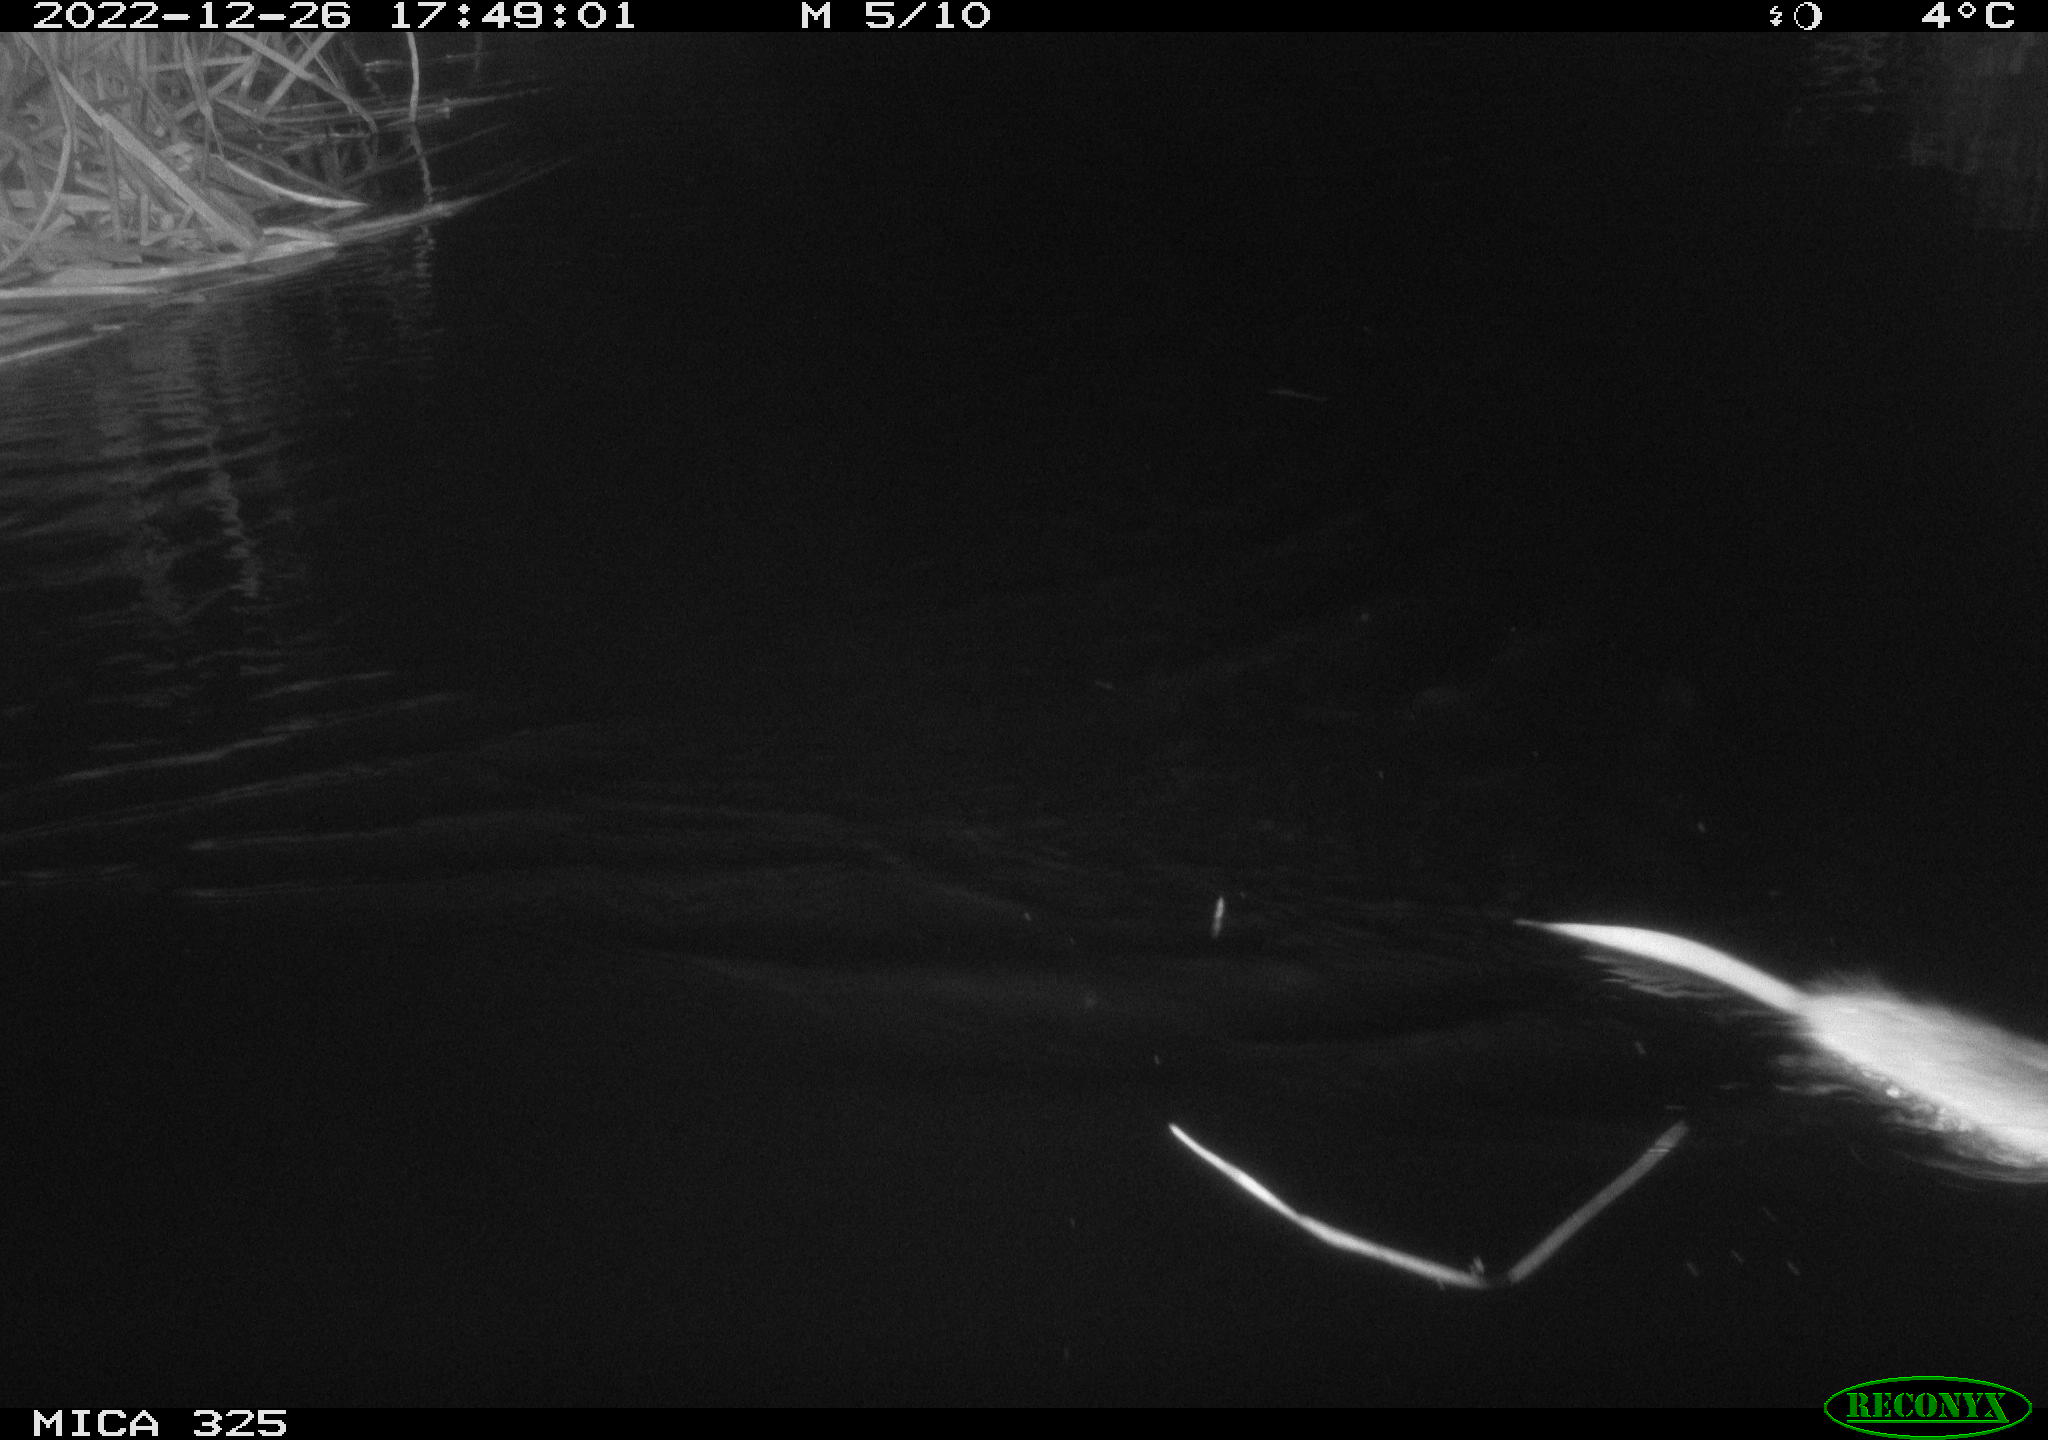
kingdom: Animalia
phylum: Chordata
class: Mammalia
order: Rodentia
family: Cricetidae
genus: Ondatra
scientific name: Ondatra zibethicus
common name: Muskrat
